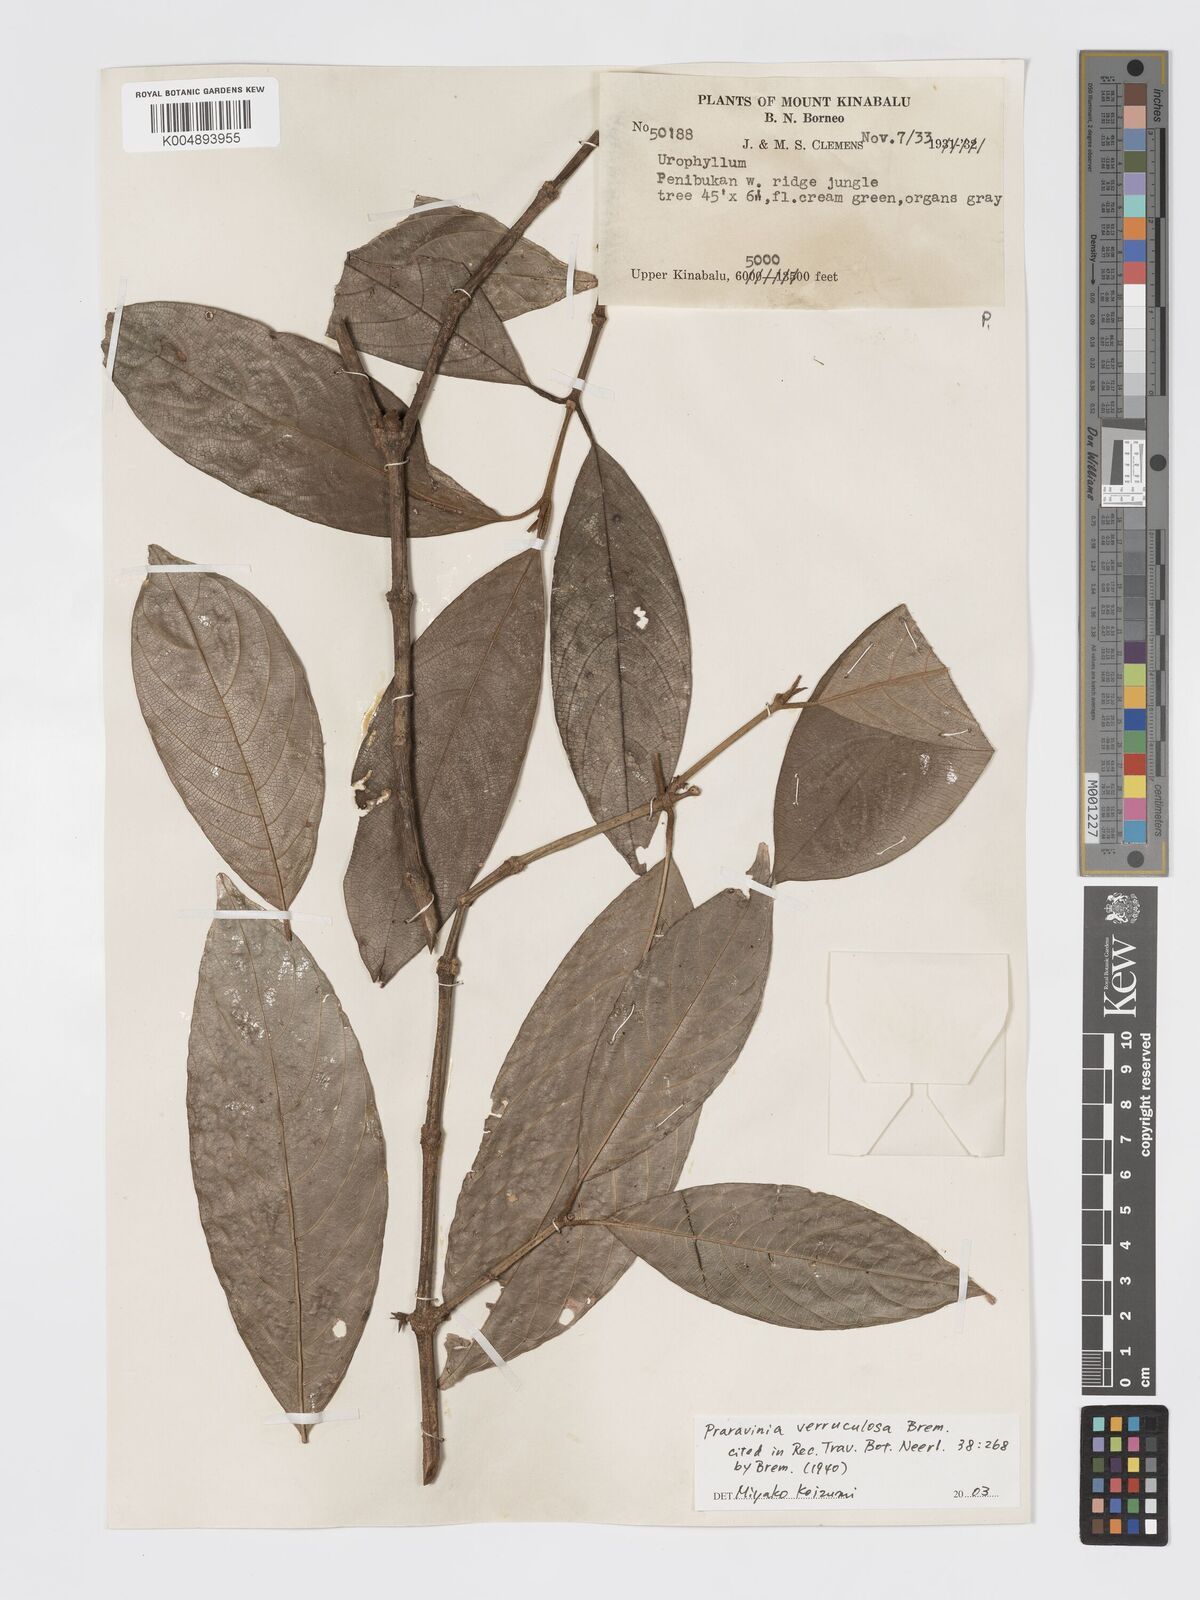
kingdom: Plantae
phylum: Tracheophyta
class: Magnoliopsida
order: Gentianales
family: Rubiaceae
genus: Praravinia
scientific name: Praravinia verruculosa
